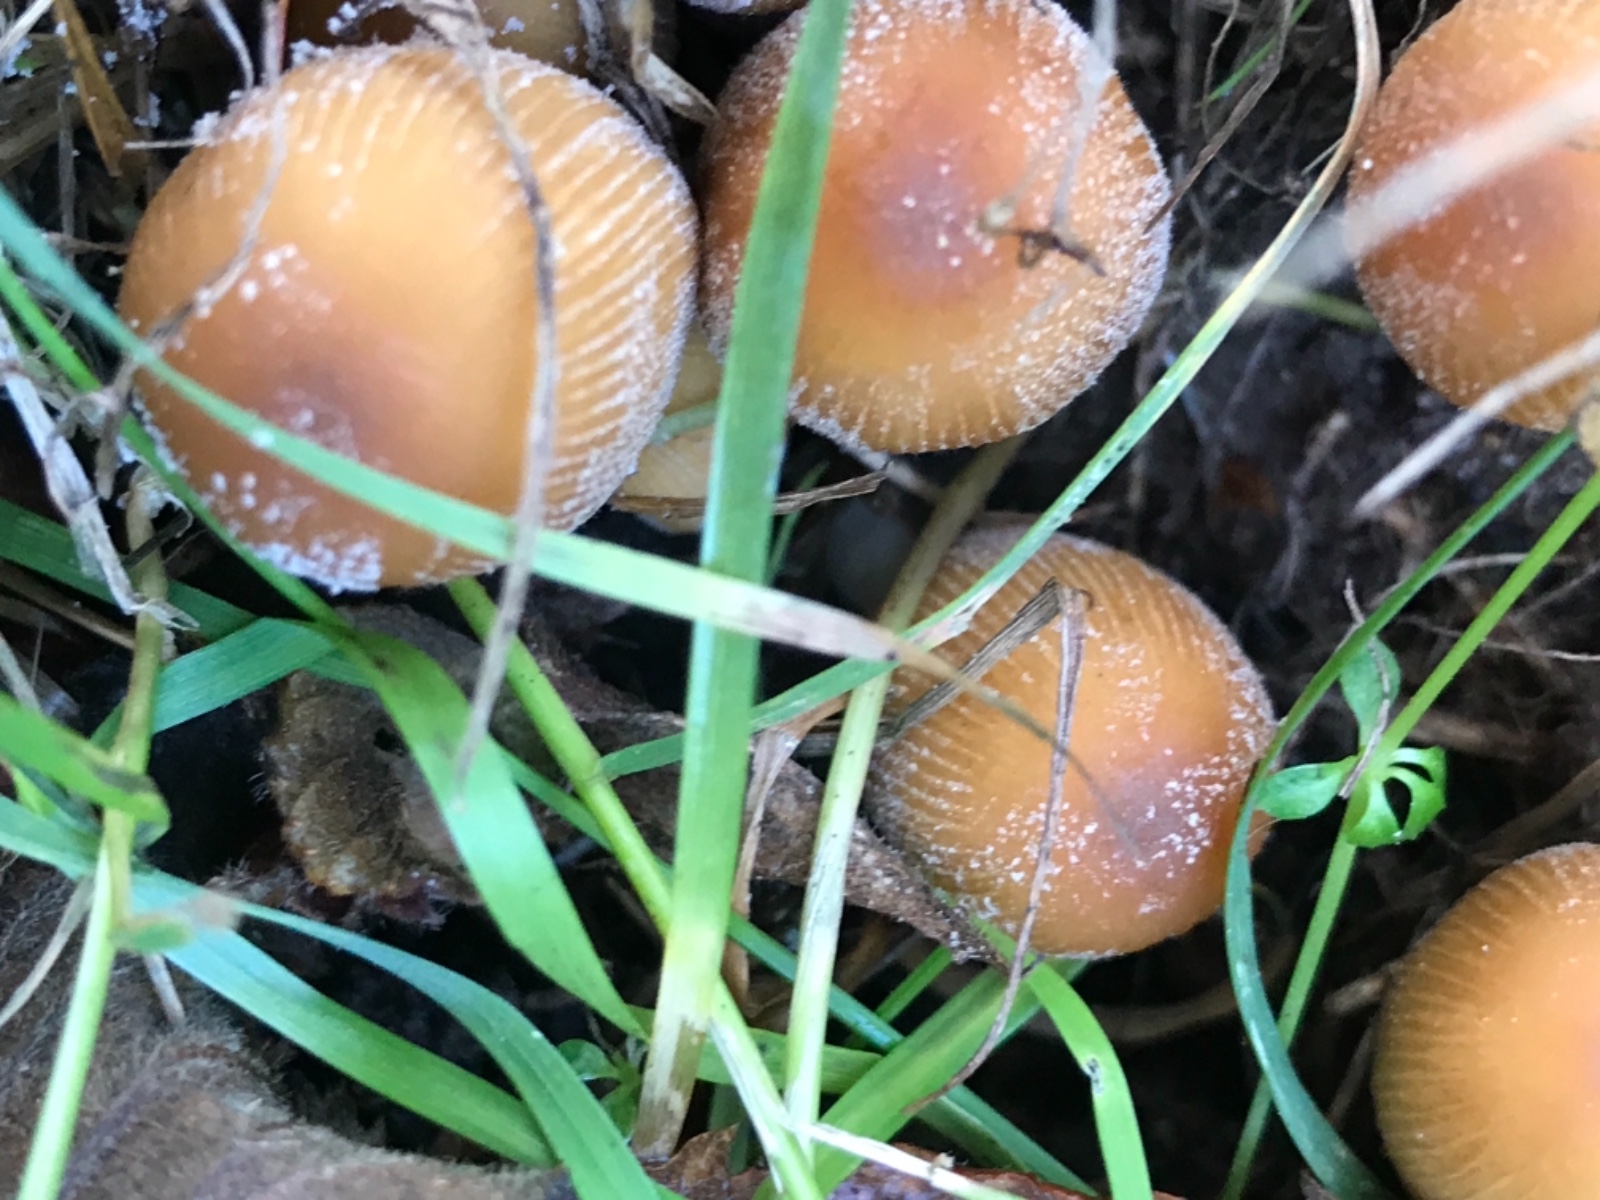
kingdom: Fungi
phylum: Basidiomycota
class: Agaricomycetes
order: Agaricales
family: Psathyrellaceae
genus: Coprinellus
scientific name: Coprinellus micaceus
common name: glimmer-blækhat
